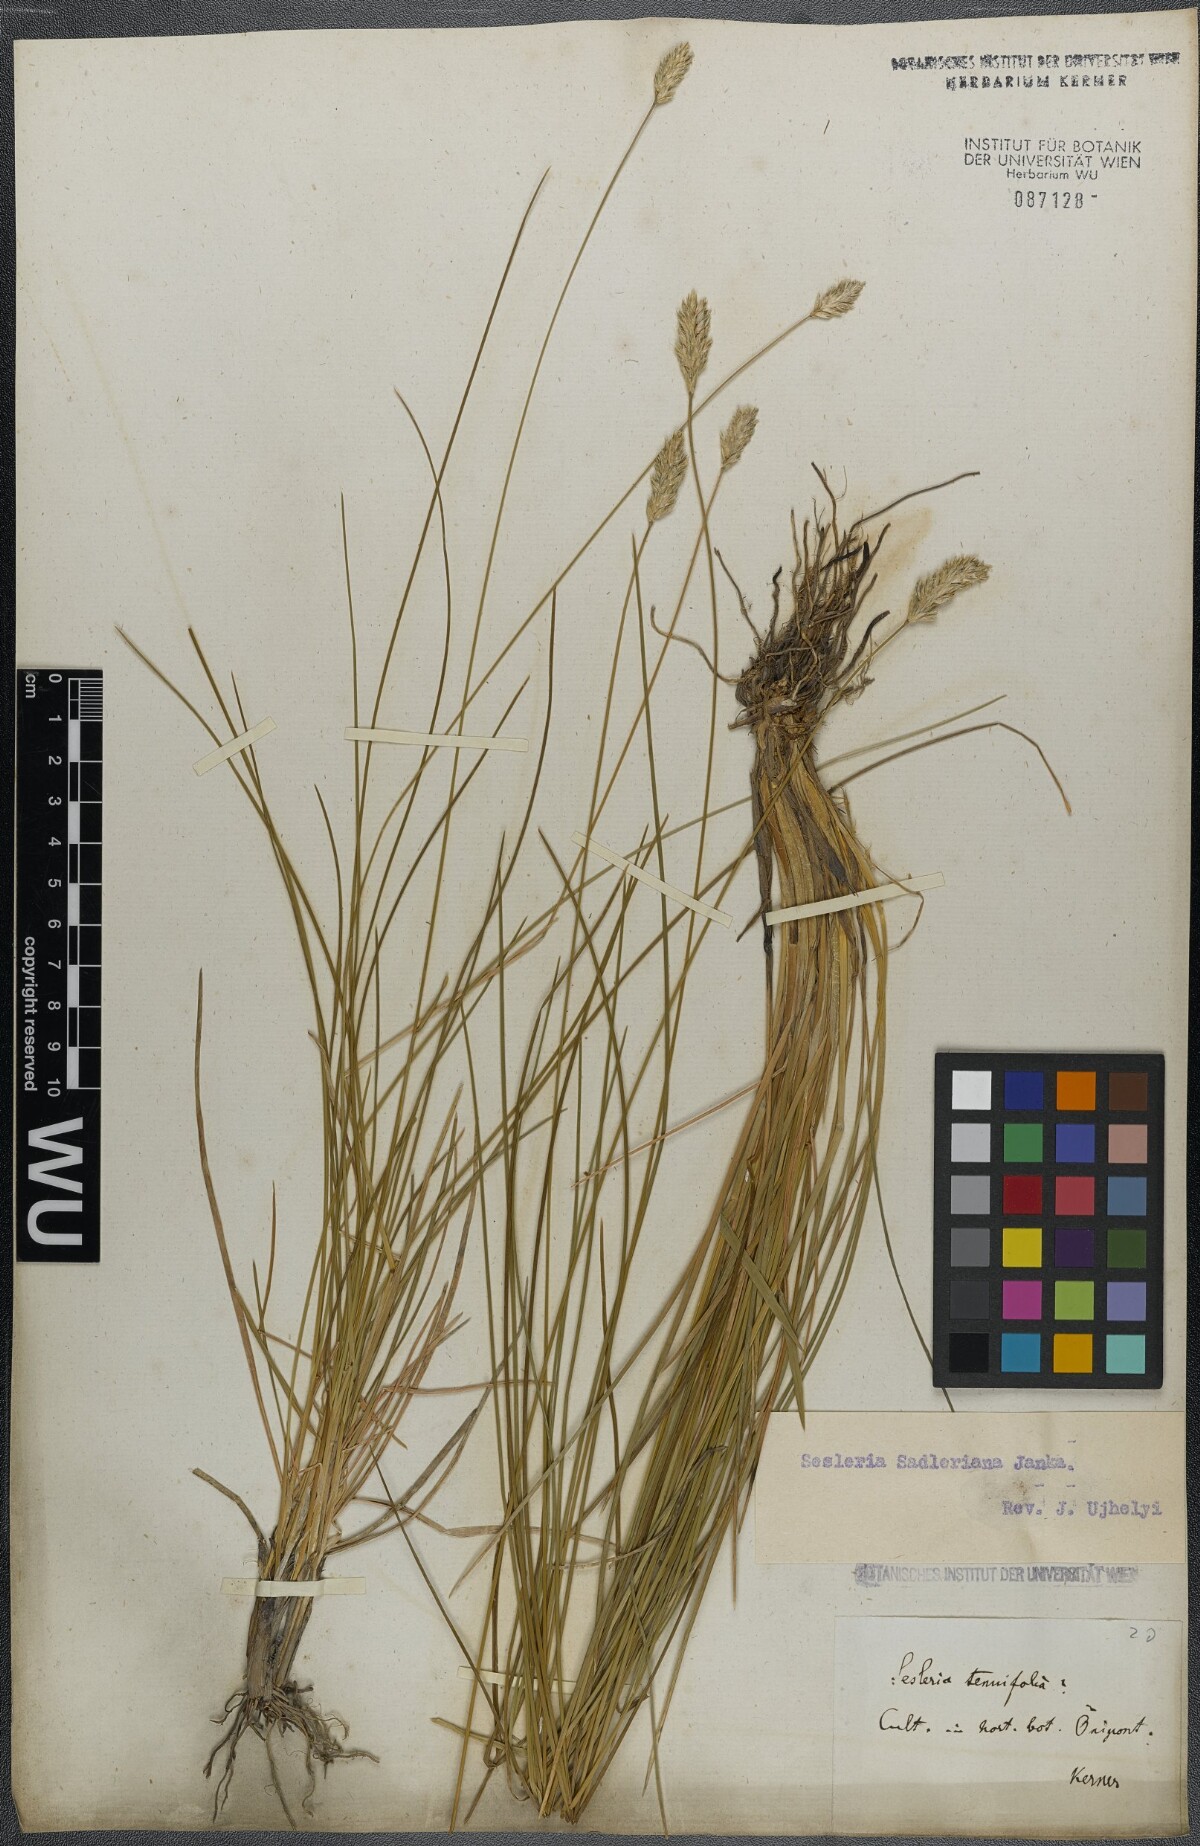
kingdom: Plantae
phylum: Tracheophyta
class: Liliopsida
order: Poales
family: Poaceae
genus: Sesleria
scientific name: Sesleria sadleriana
